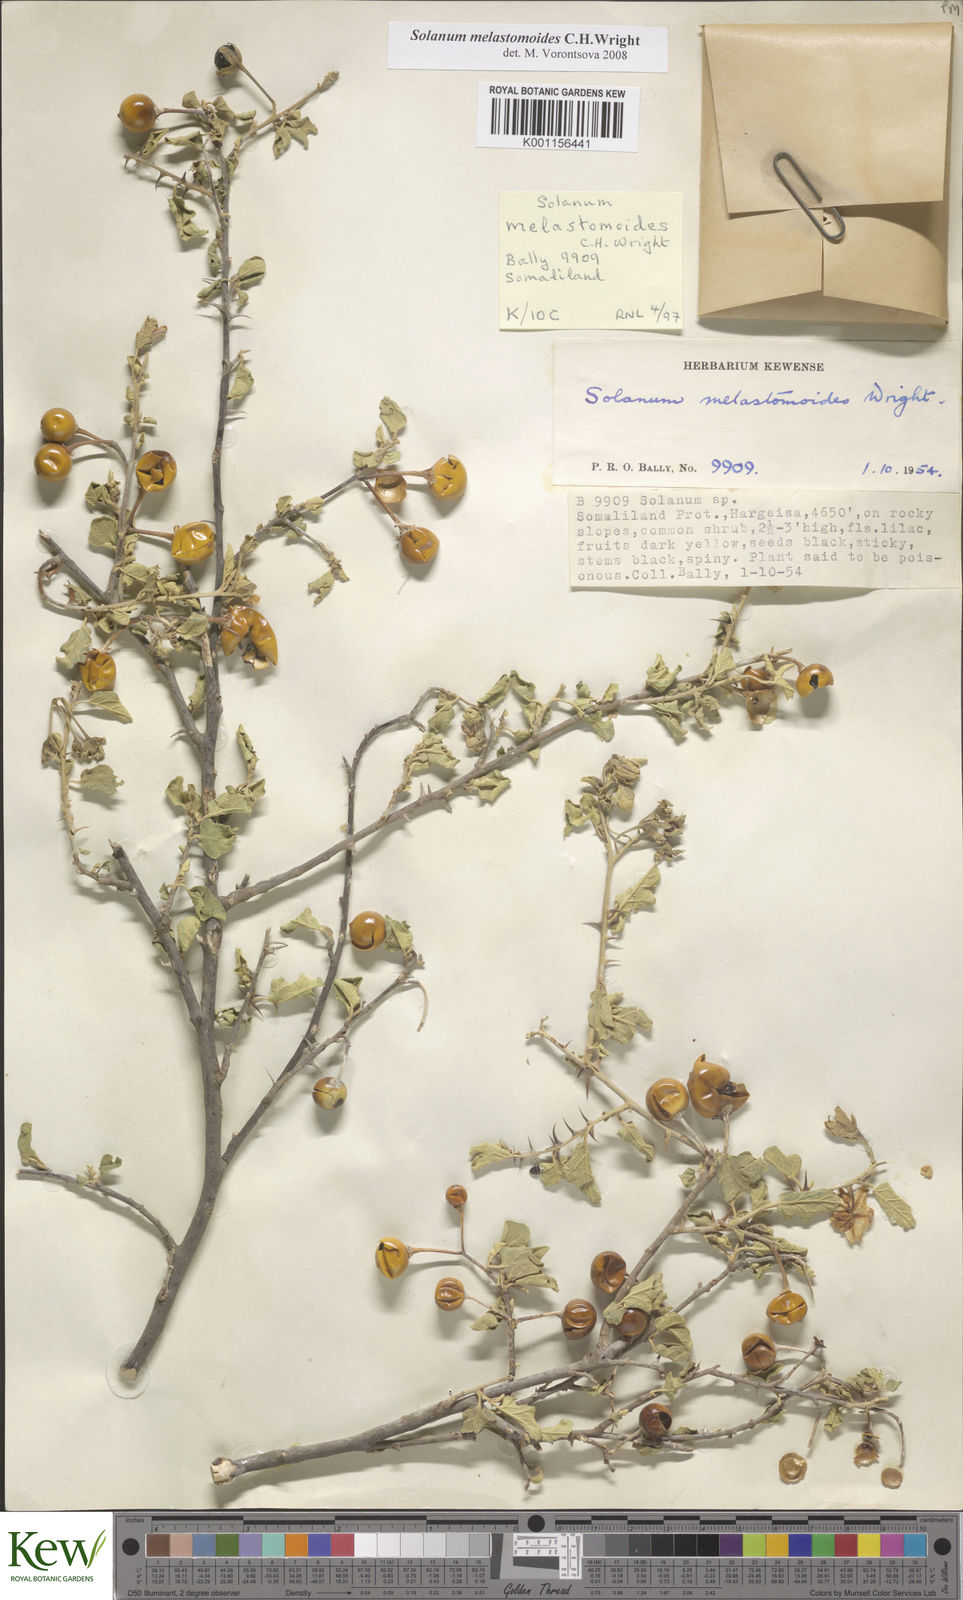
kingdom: Plantae
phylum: Tracheophyta
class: Magnoliopsida
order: Solanales
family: Solanaceae
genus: Solanum
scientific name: Solanum melastomoides
